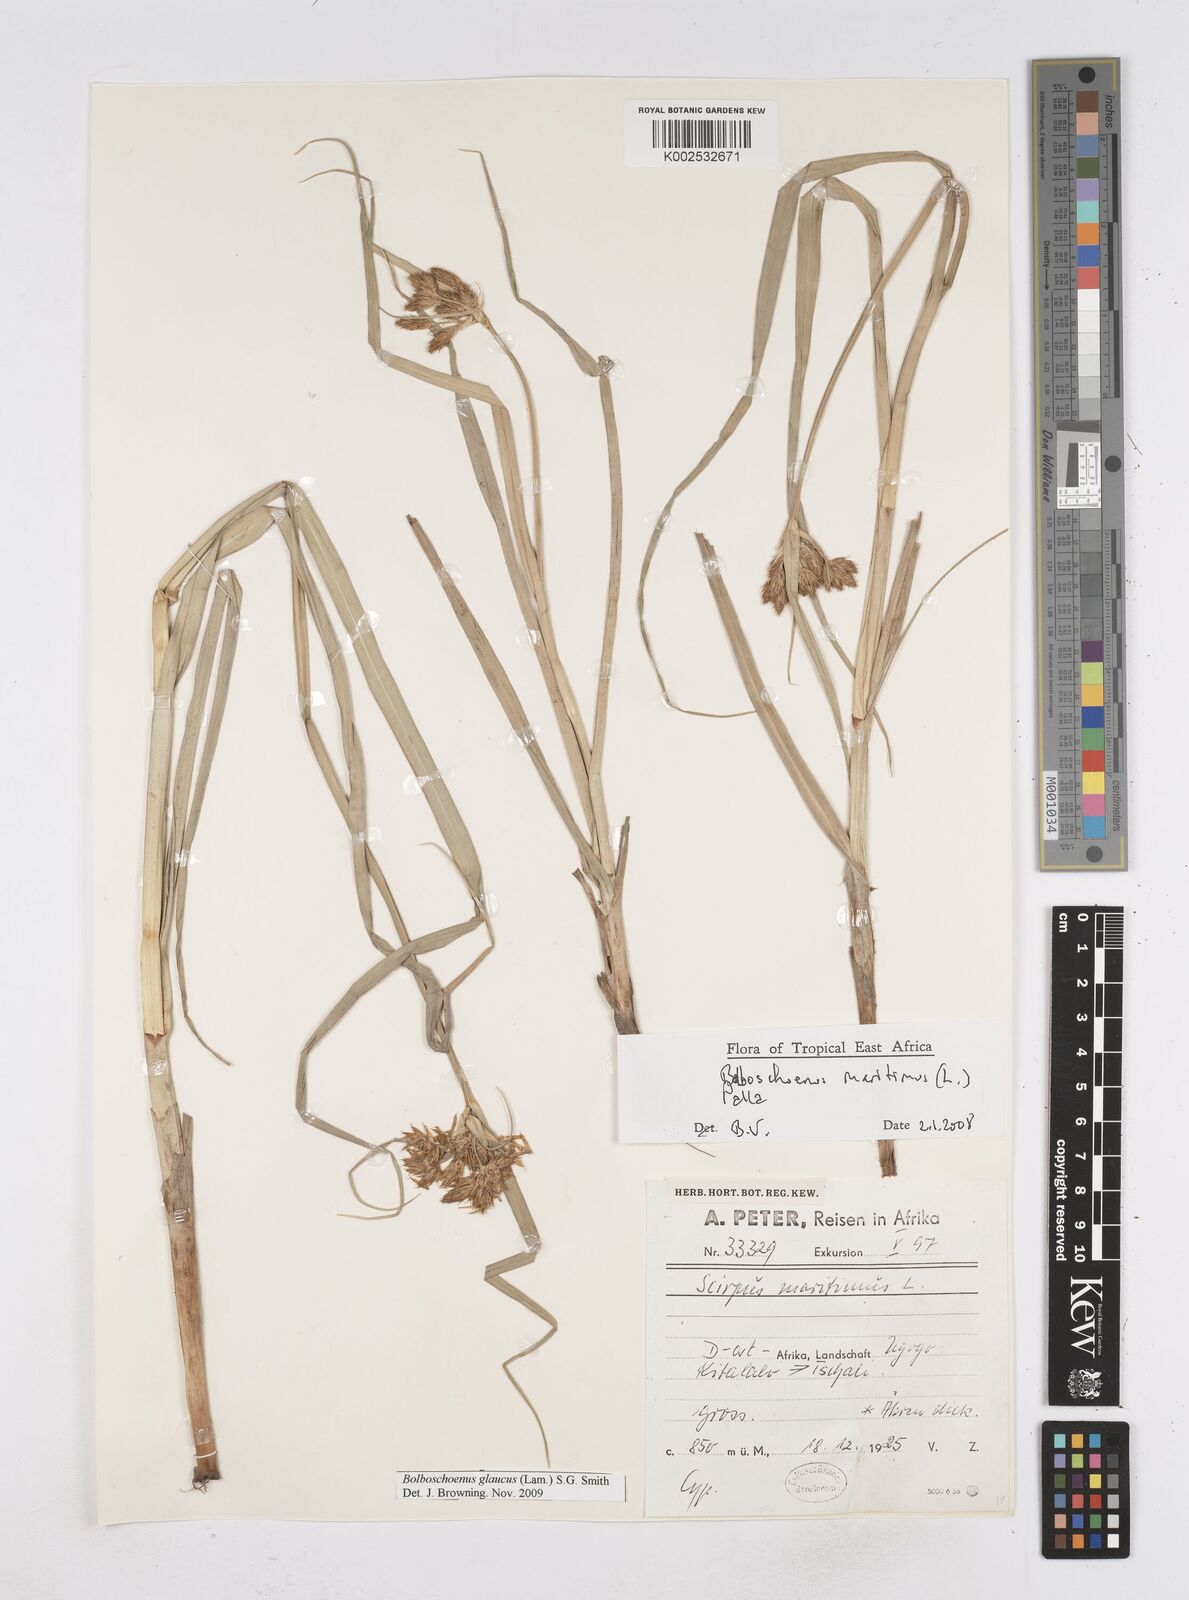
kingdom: Plantae
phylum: Tracheophyta
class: Liliopsida
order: Poales
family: Cyperaceae
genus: Bolboschoenus
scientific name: Bolboschoenus glaucus
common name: Tuberous bulrush
